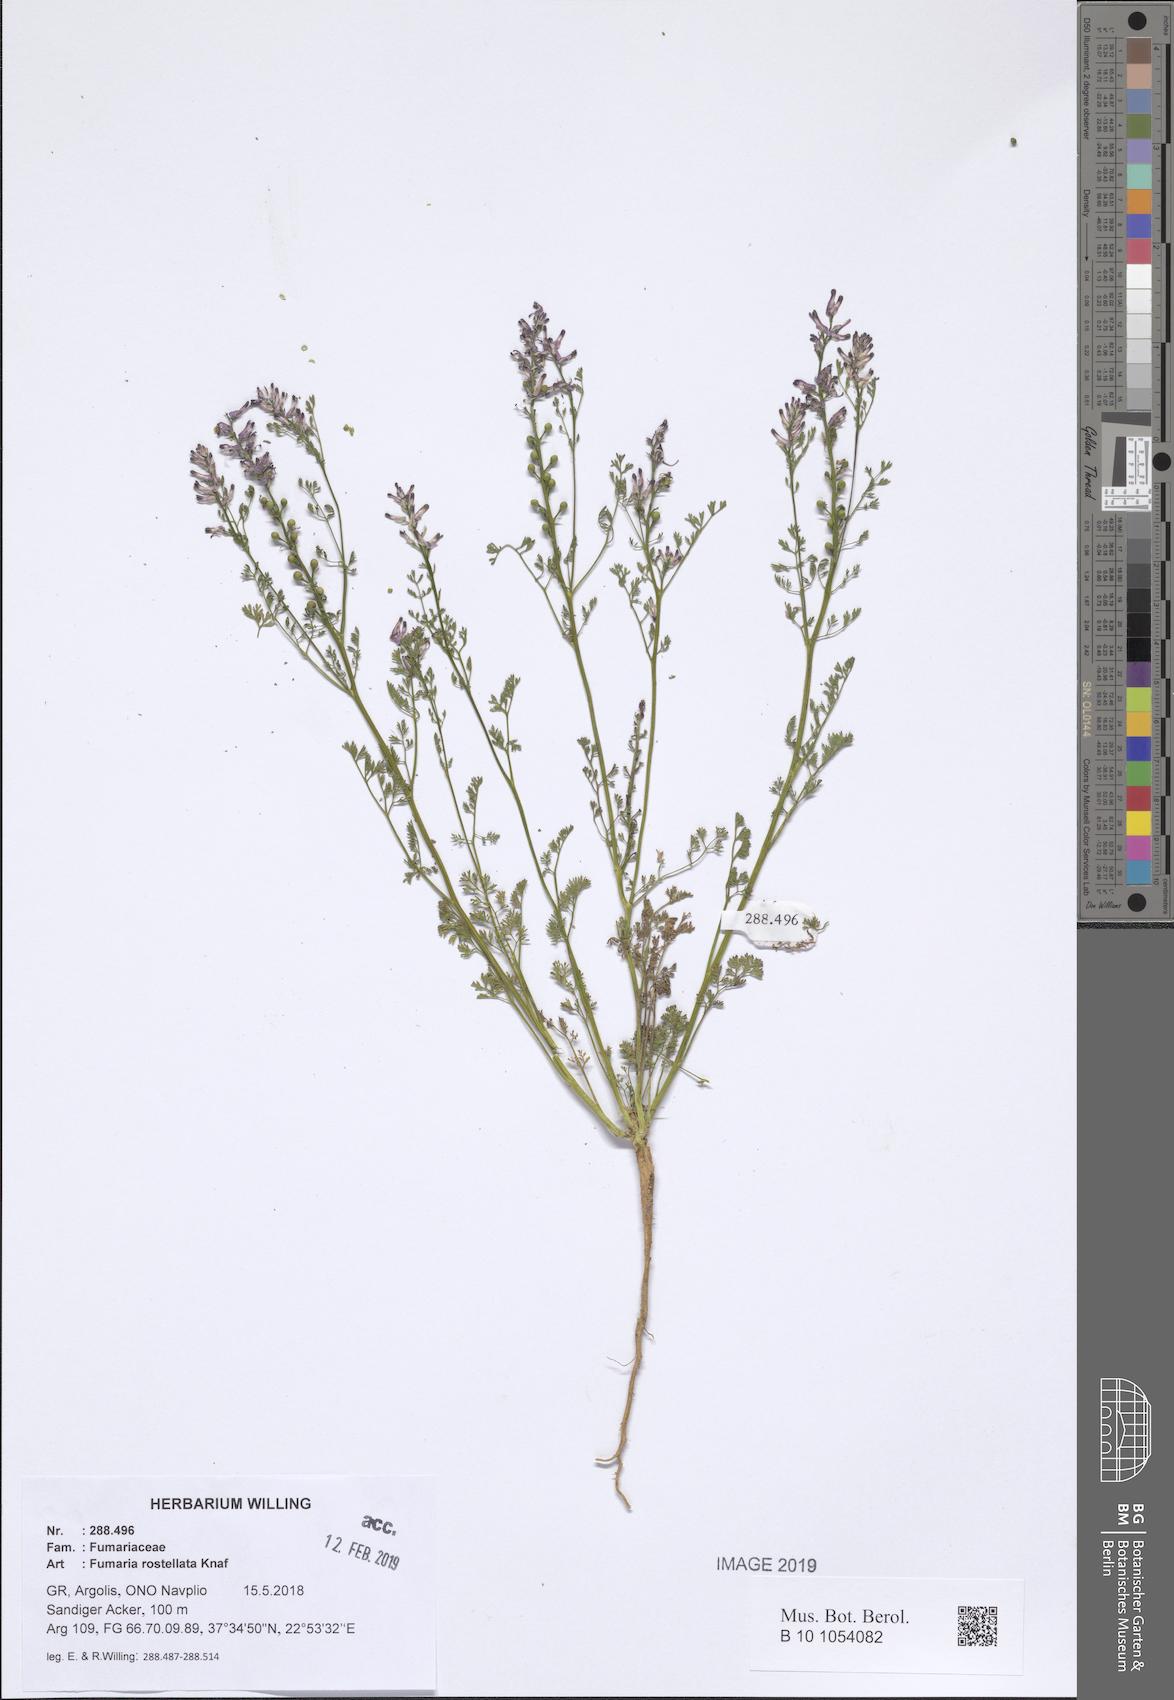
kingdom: Plantae
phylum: Tracheophyta
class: Magnoliopsida
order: Ranunculales
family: Papaveraceae
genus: Fumaria
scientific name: Fumaria rostellata
